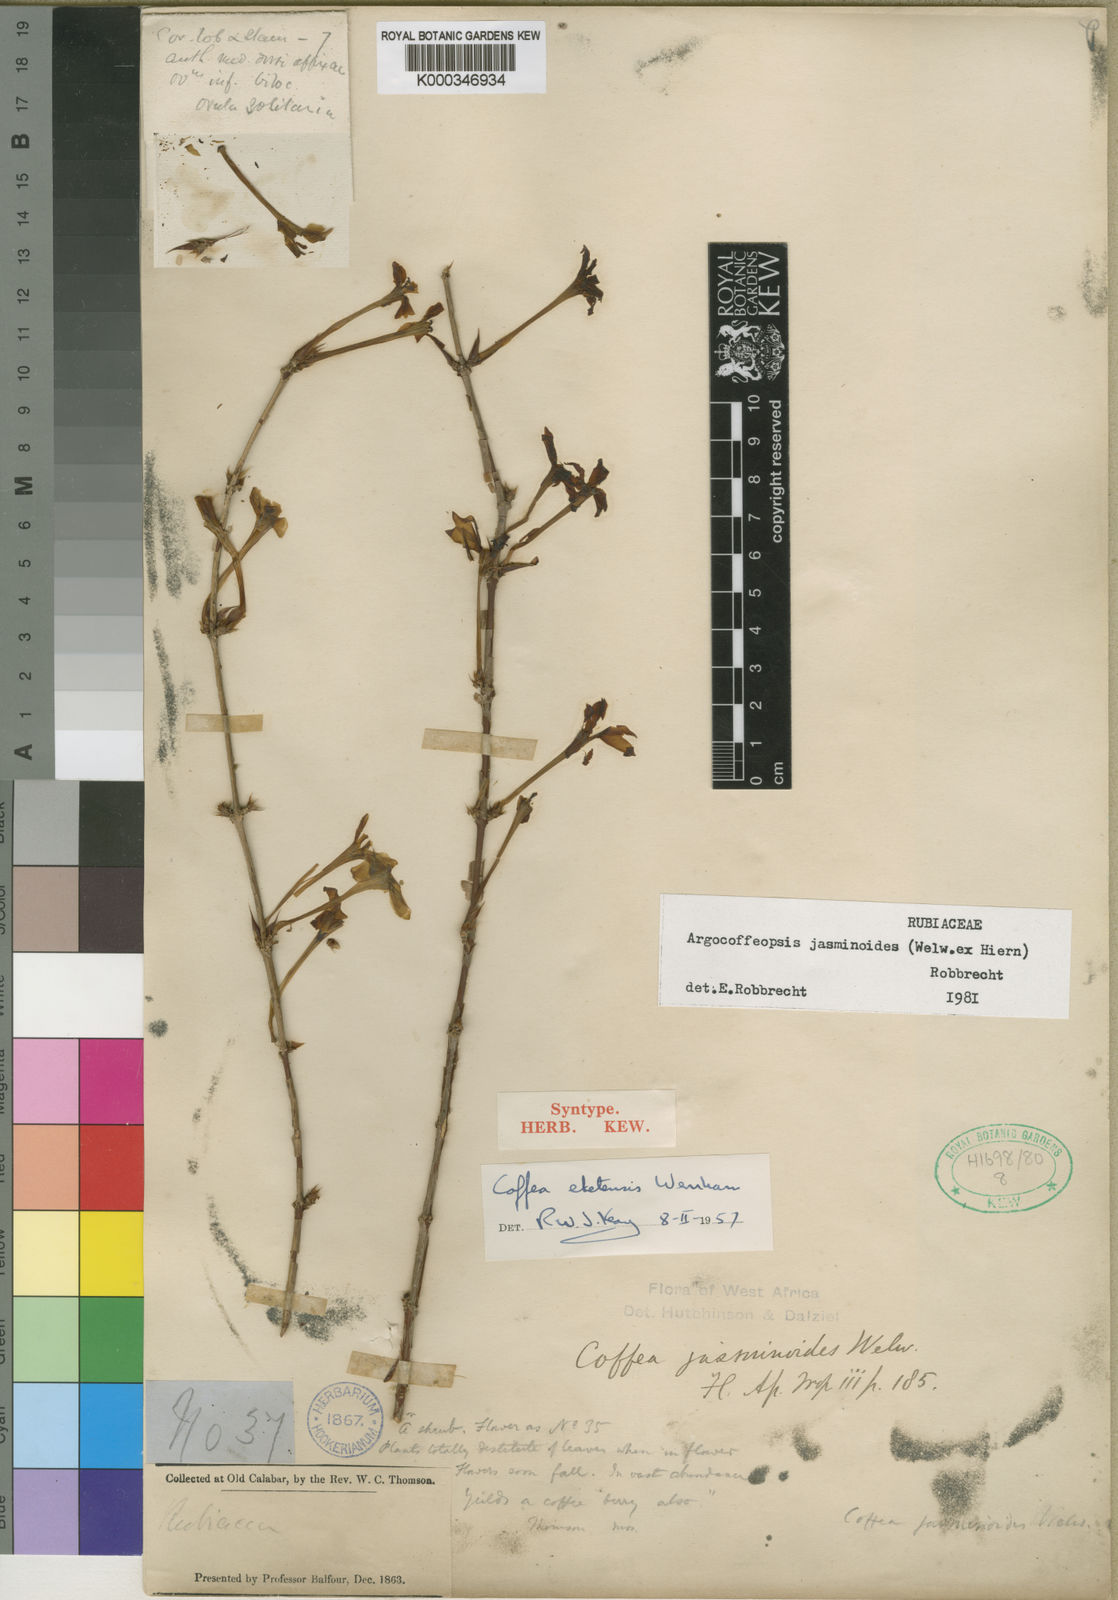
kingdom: Plantae
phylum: Tracheophyta
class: Magnoliopsida
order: Gentianales
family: Rubiaceae
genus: Argocoffeopsis
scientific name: Argocoffeopsis eketensis
